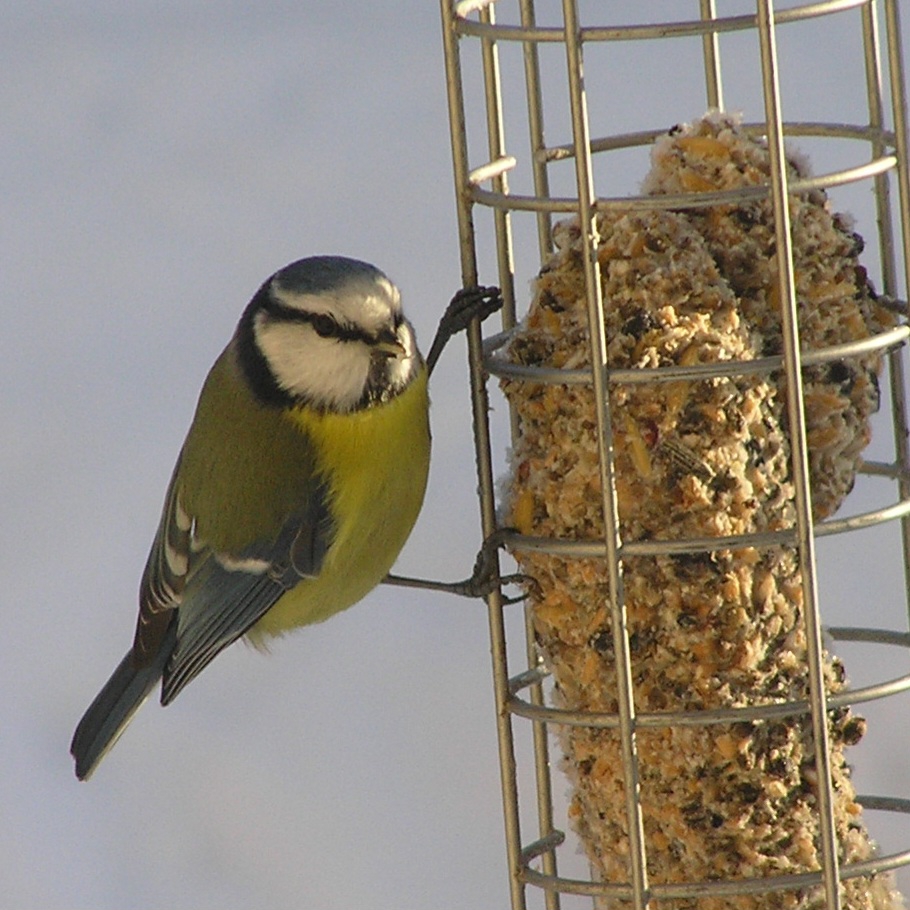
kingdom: Animalia
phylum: Chordata
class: Aves
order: Passeriformes
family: Paridae
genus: Cyanistes
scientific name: Cyanistes caeruleus
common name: Blåmejse
